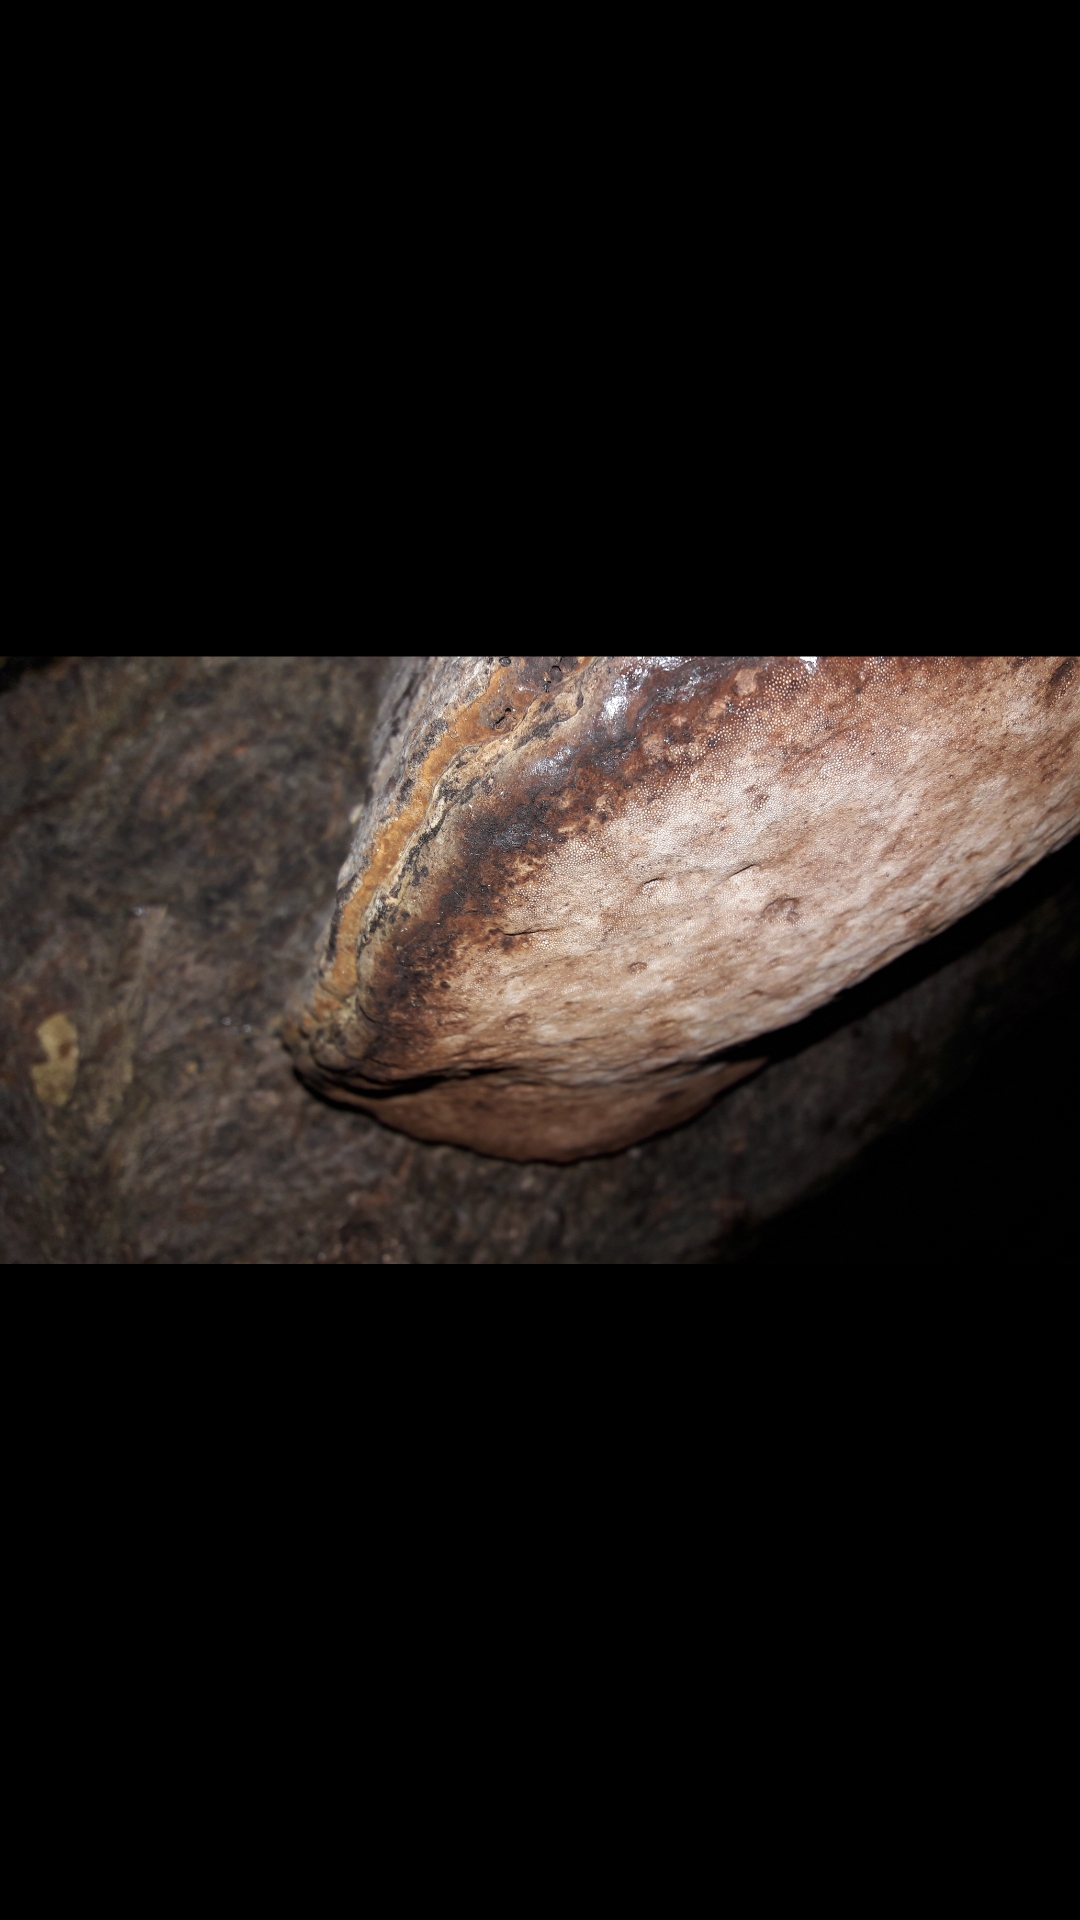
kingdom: Fungi
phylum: Basidiomycota
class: Agaricomycetes
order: Polyporales
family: Polyporaceae
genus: Fomes
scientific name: Fomes fomentarius
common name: tøndersvamp
